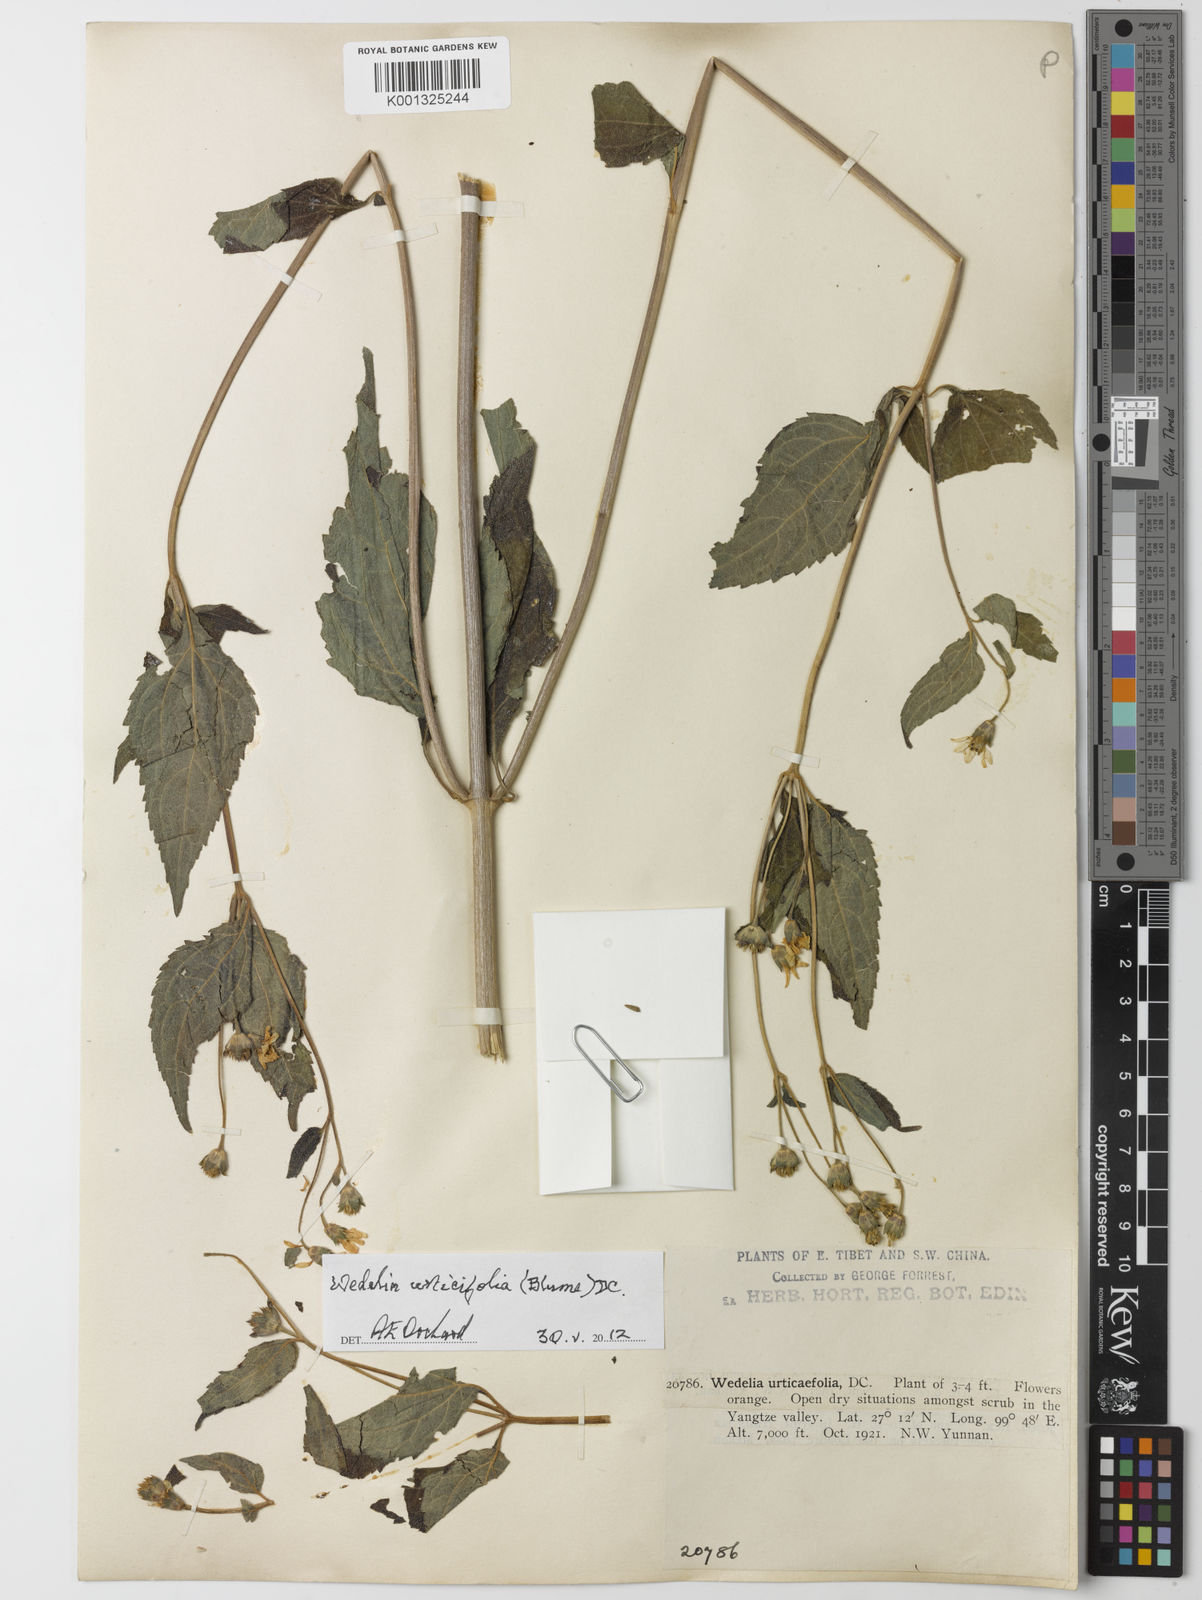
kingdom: Plantae
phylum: Tracheophyta
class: Magnoliopsida
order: Asterales
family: Asteraceae
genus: Lipoblepharis
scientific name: Lipoblepharis urticifolia
